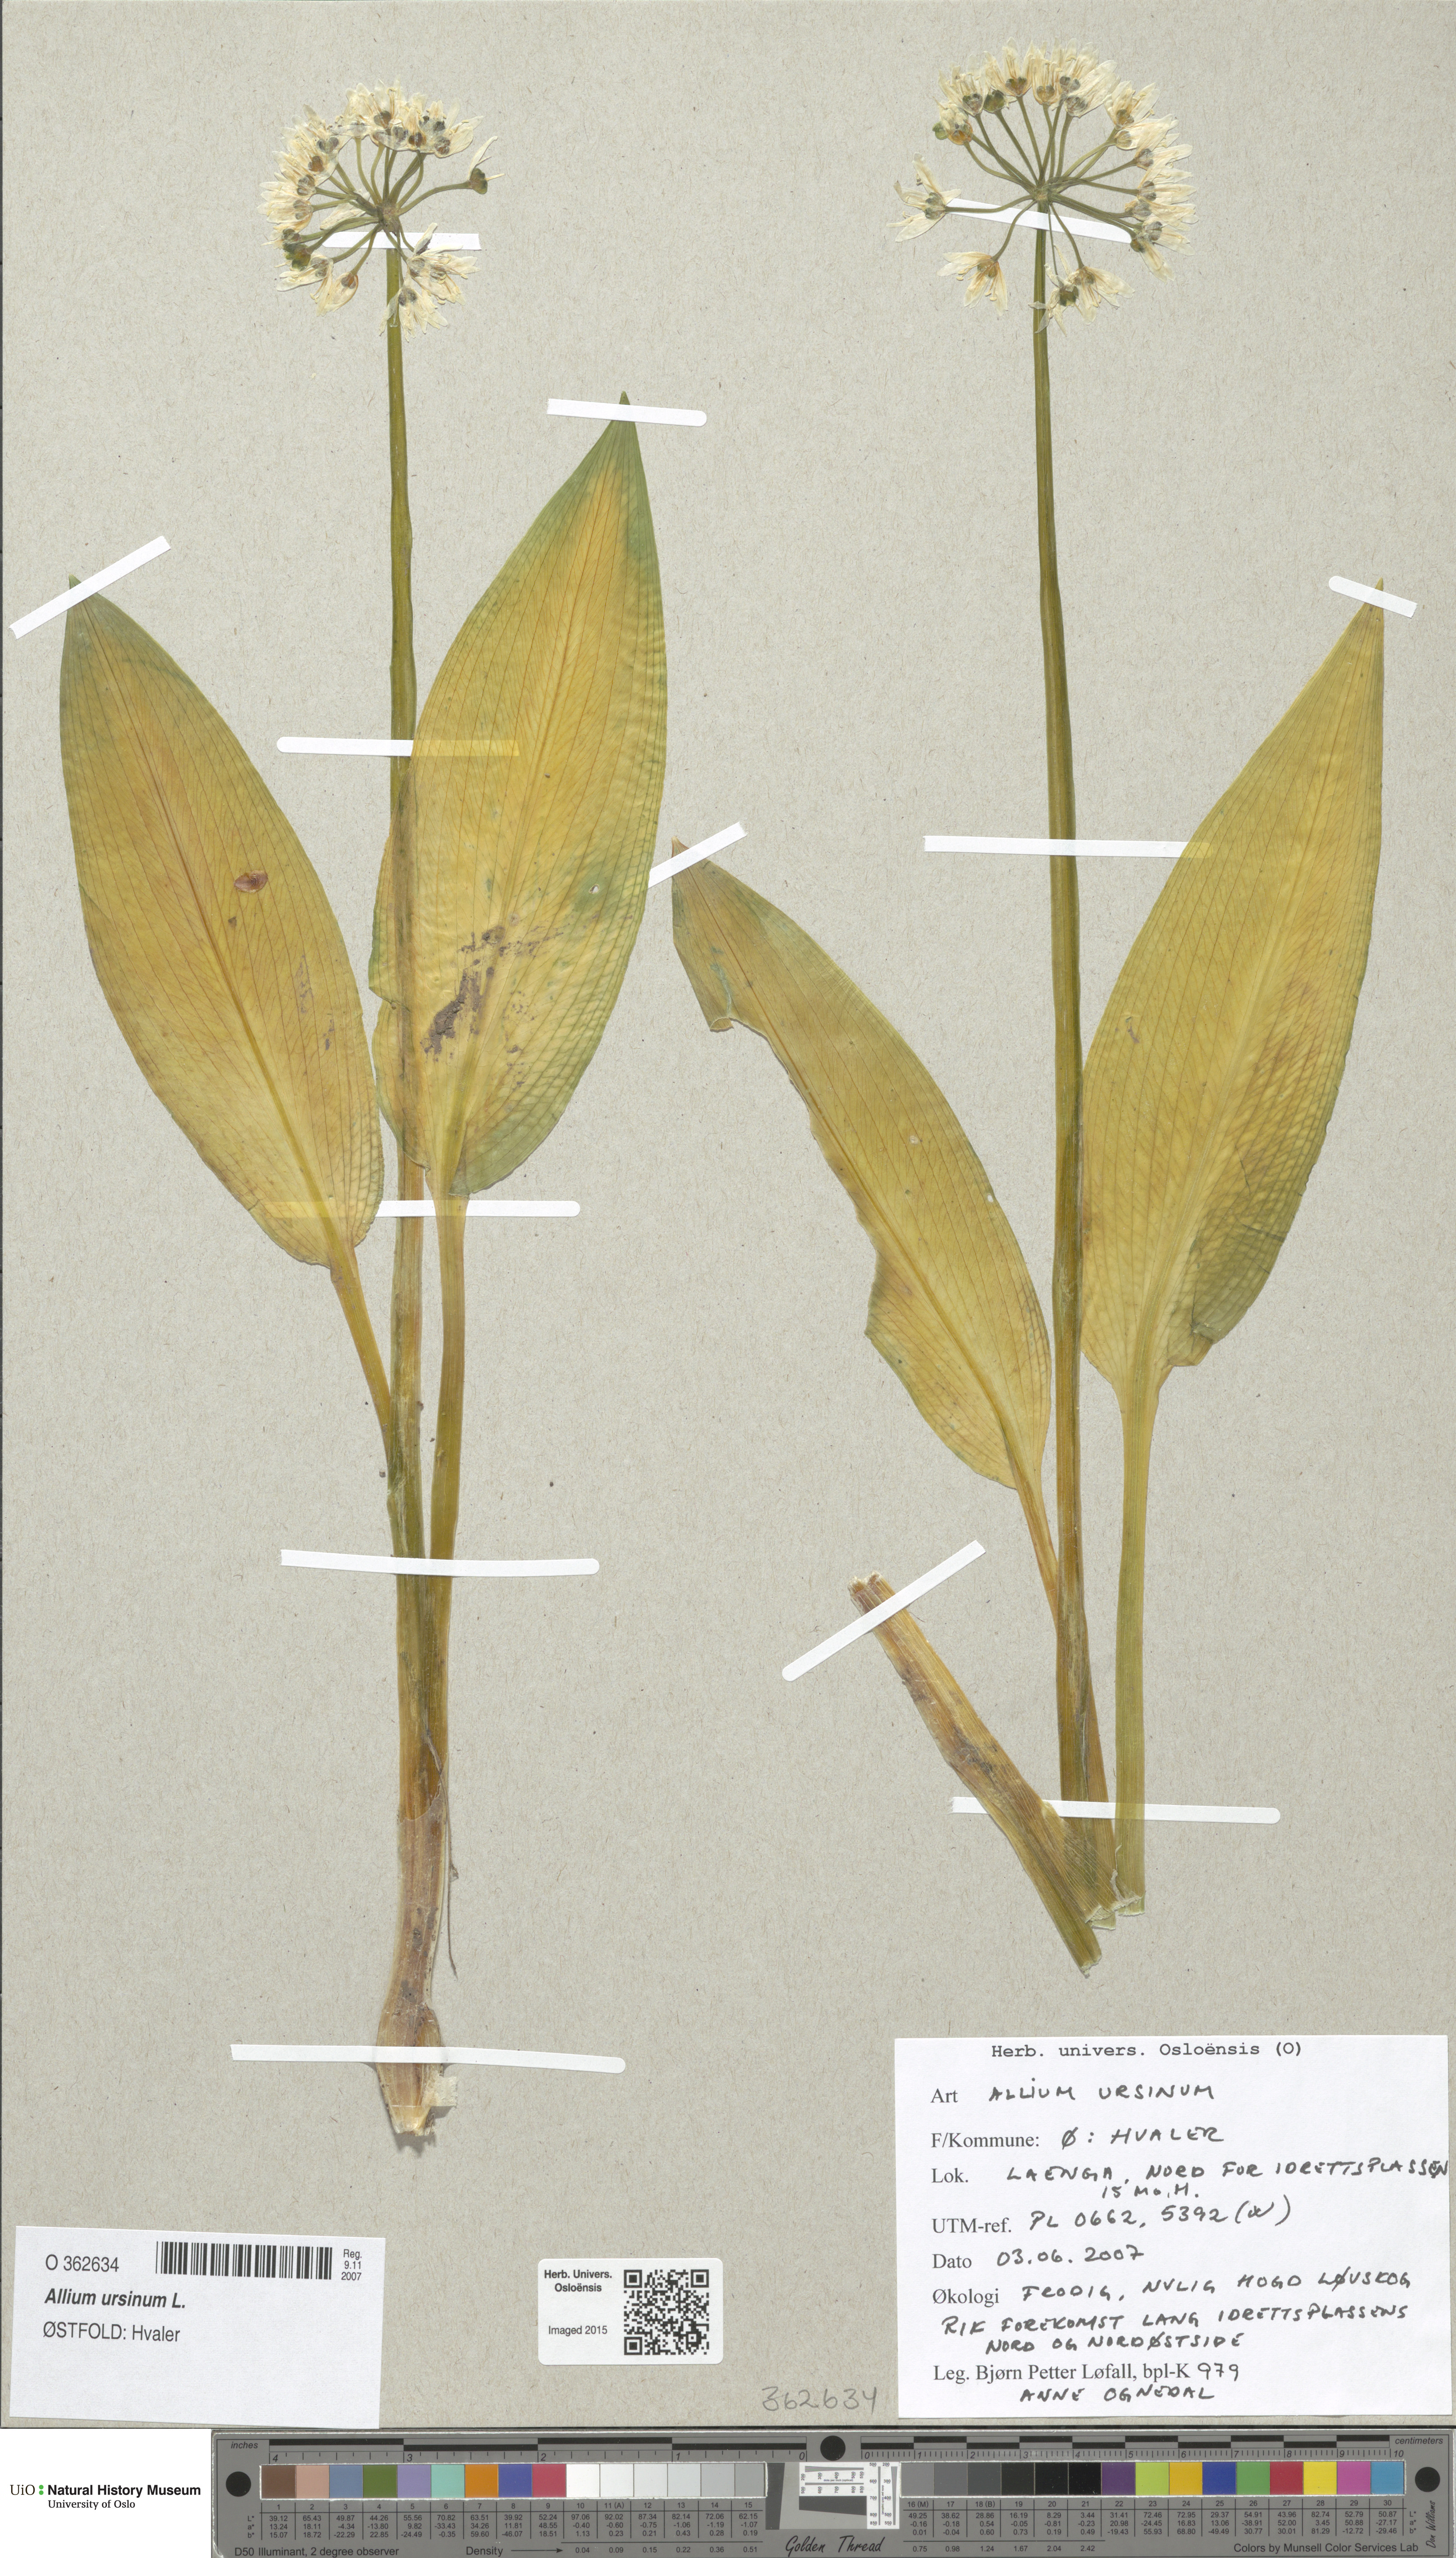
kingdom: Plantae
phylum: Tracheophyta
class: Liliopsida
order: Asparagales
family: Amaryllidaceae
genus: Allium
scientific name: Allium ursinum
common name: Ramsons
